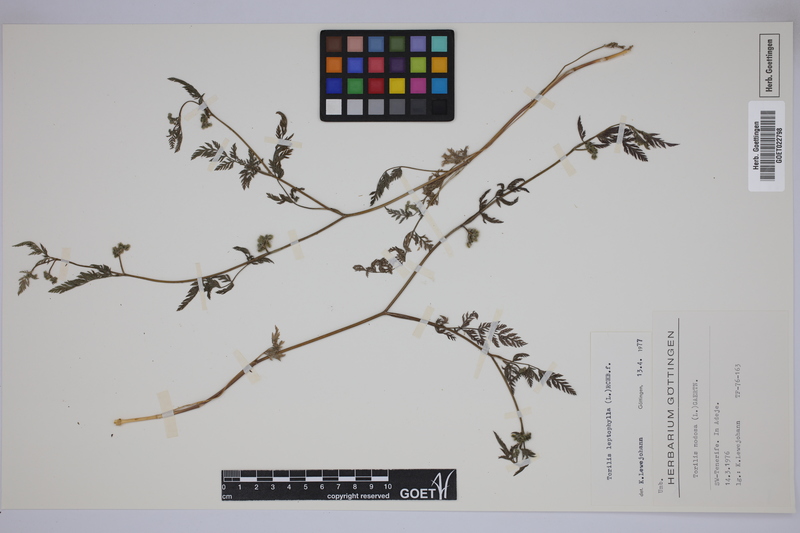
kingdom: Plantae
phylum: Tracheophyta
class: Magnoliopsida
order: Apiales
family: Apiaceae
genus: Torilis
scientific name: Torilis leptophylla
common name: Bristlefruit hedgeparsley
